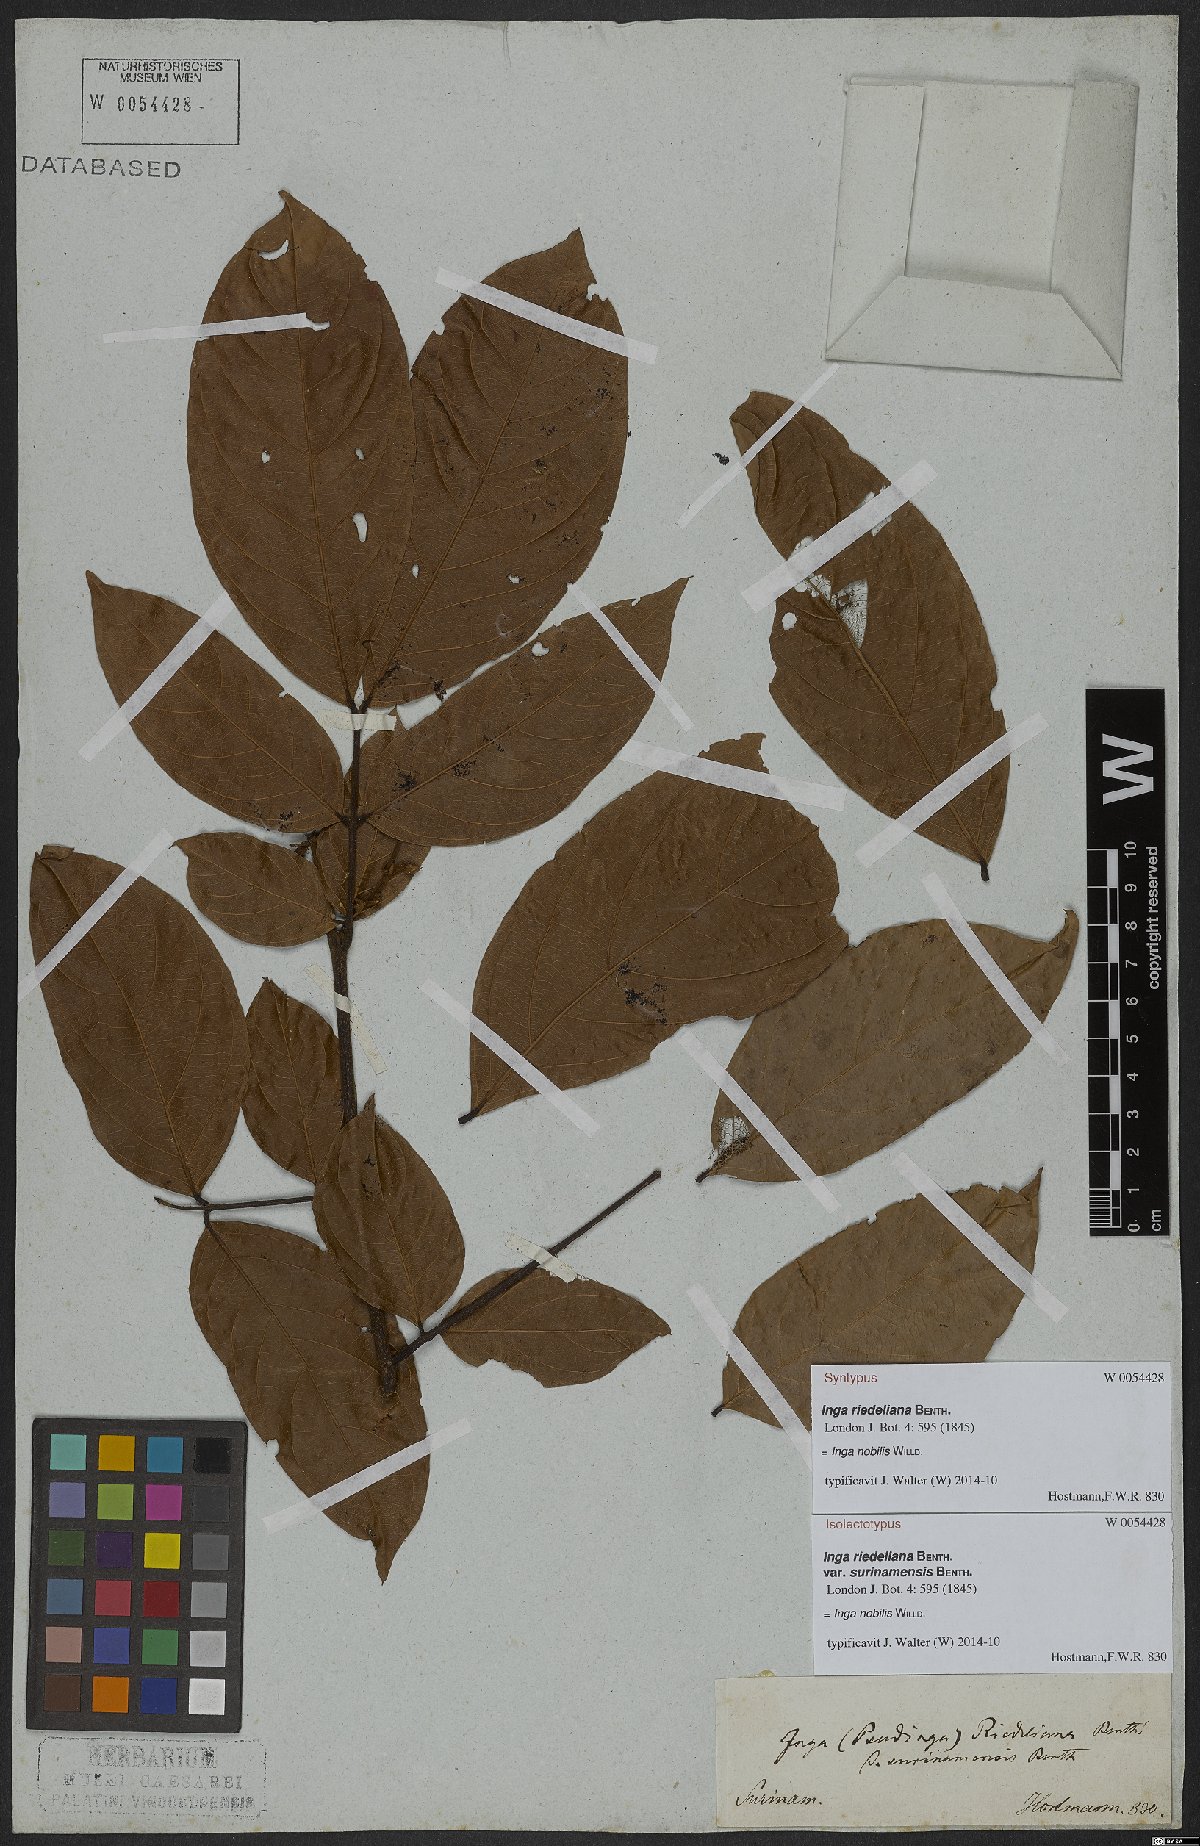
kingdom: Plantae
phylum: Tracheophyta
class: Magnoliopsida
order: Fabales
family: Fabaceae
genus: Inga
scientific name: Inga nobilis
